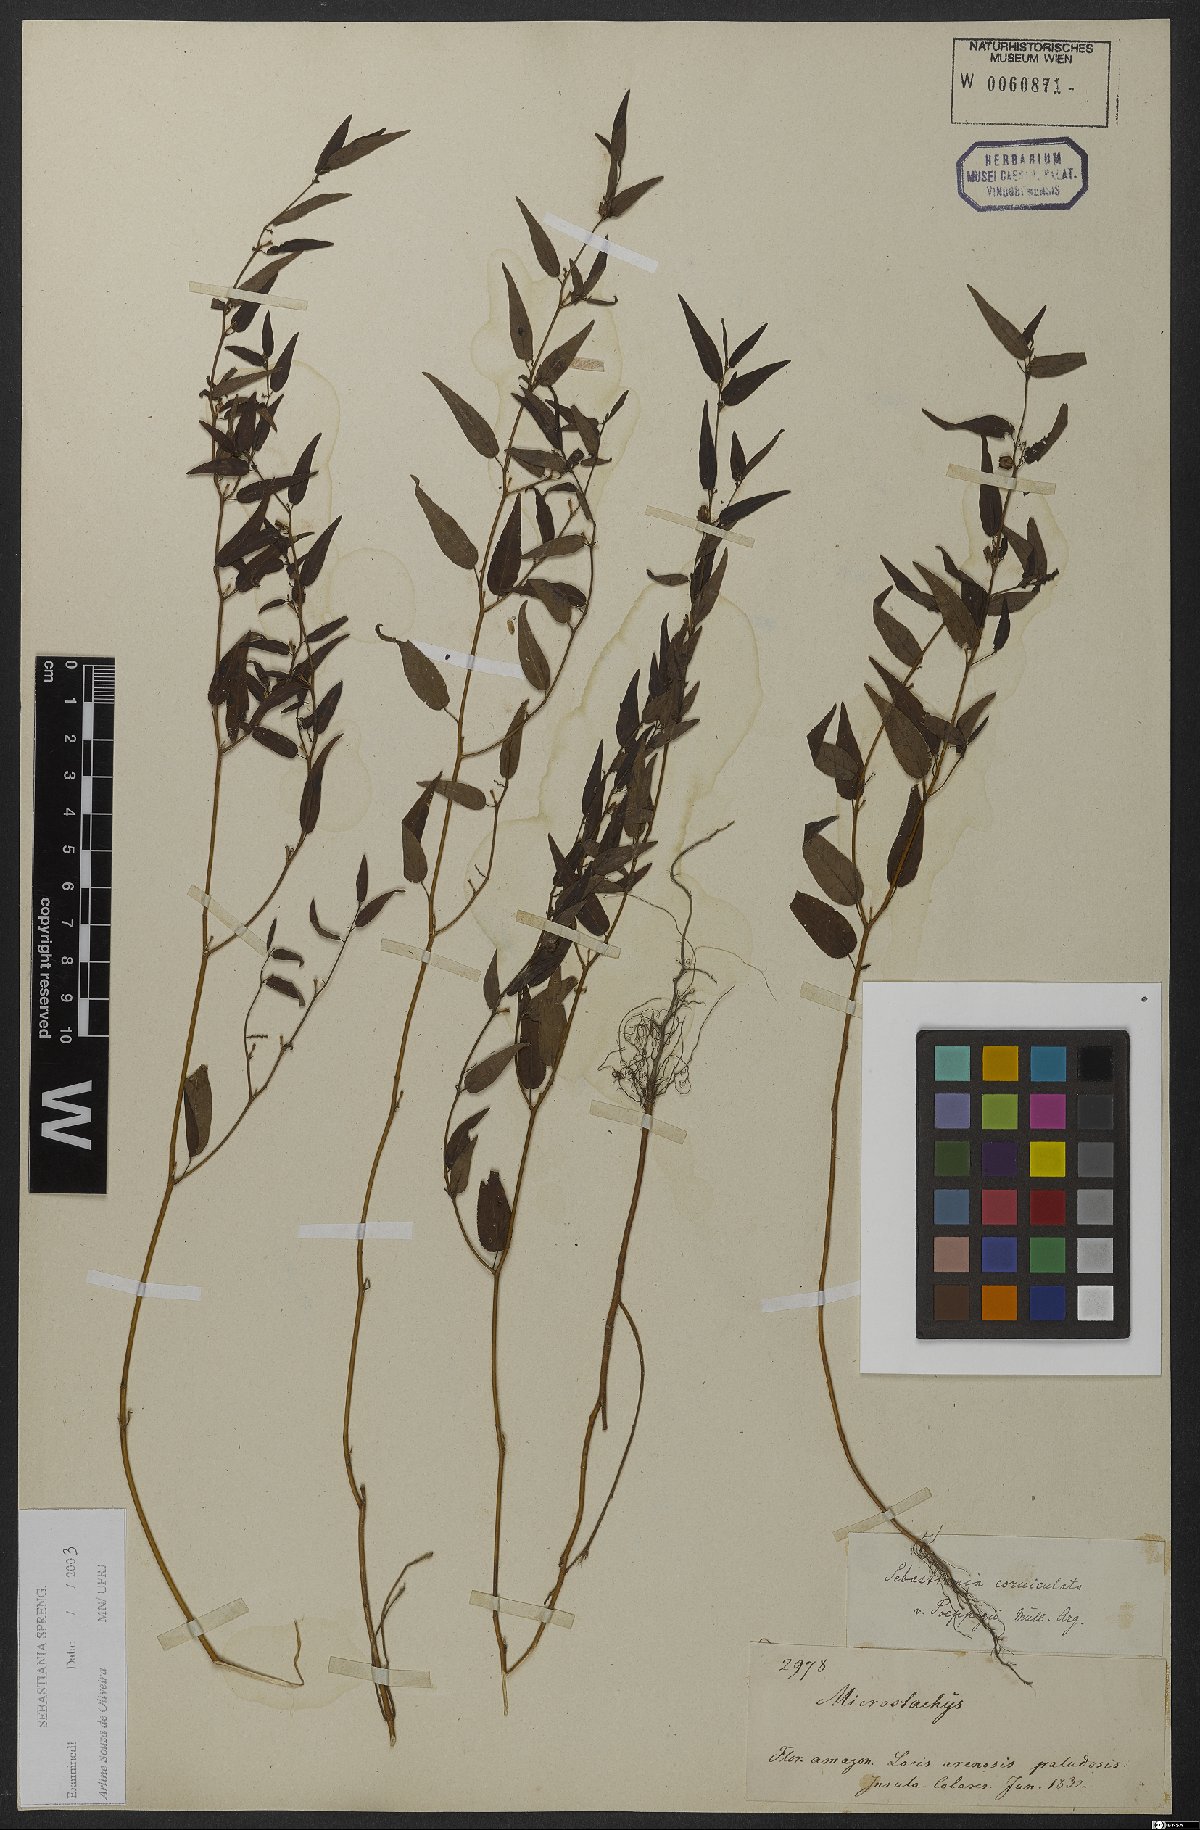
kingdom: Plantae
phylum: Tracheophyta
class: Magnoliopsida
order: Malpighiales
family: Euphorbiaceae
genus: Microstachys
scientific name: Microstachys corniculata
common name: Hato tejas
